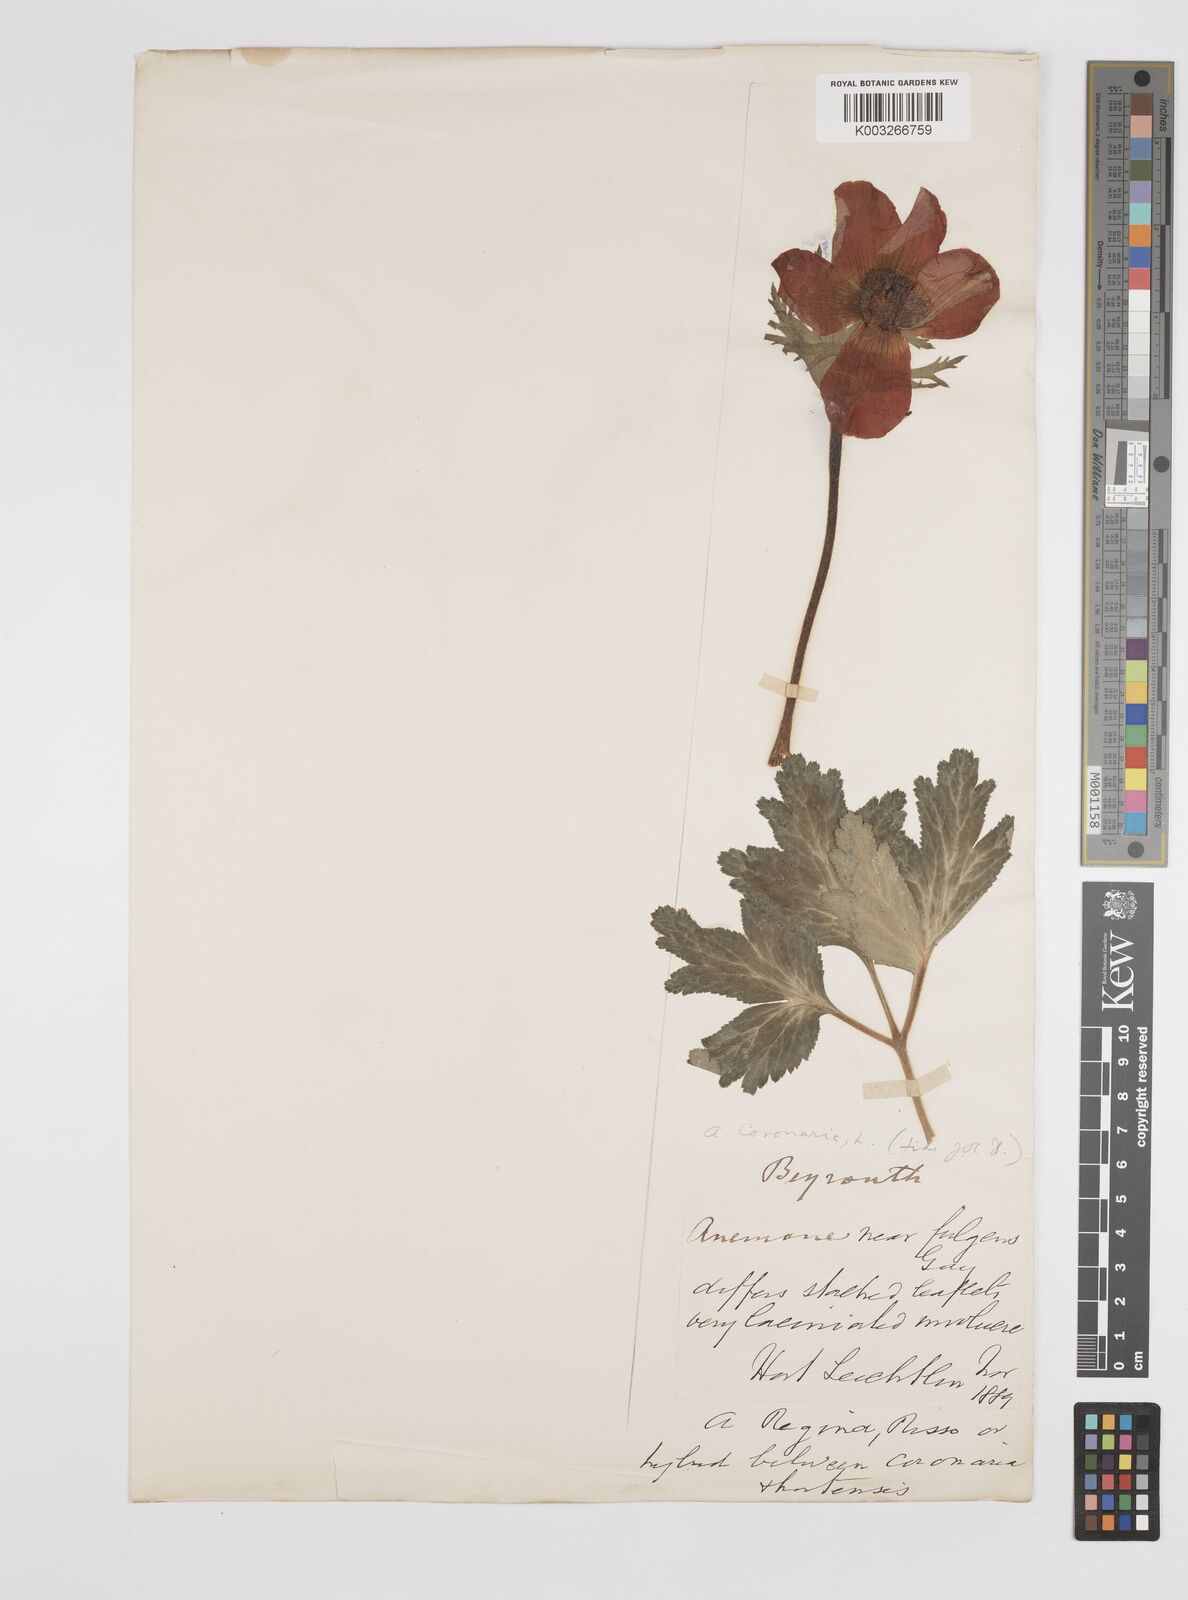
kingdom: Plantae
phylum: Tracheophyta
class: Magnoliopsida
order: Ranunculales
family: Ranunculaceae
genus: Anemone
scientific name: Anemone coronaria
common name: Poppy anemone
